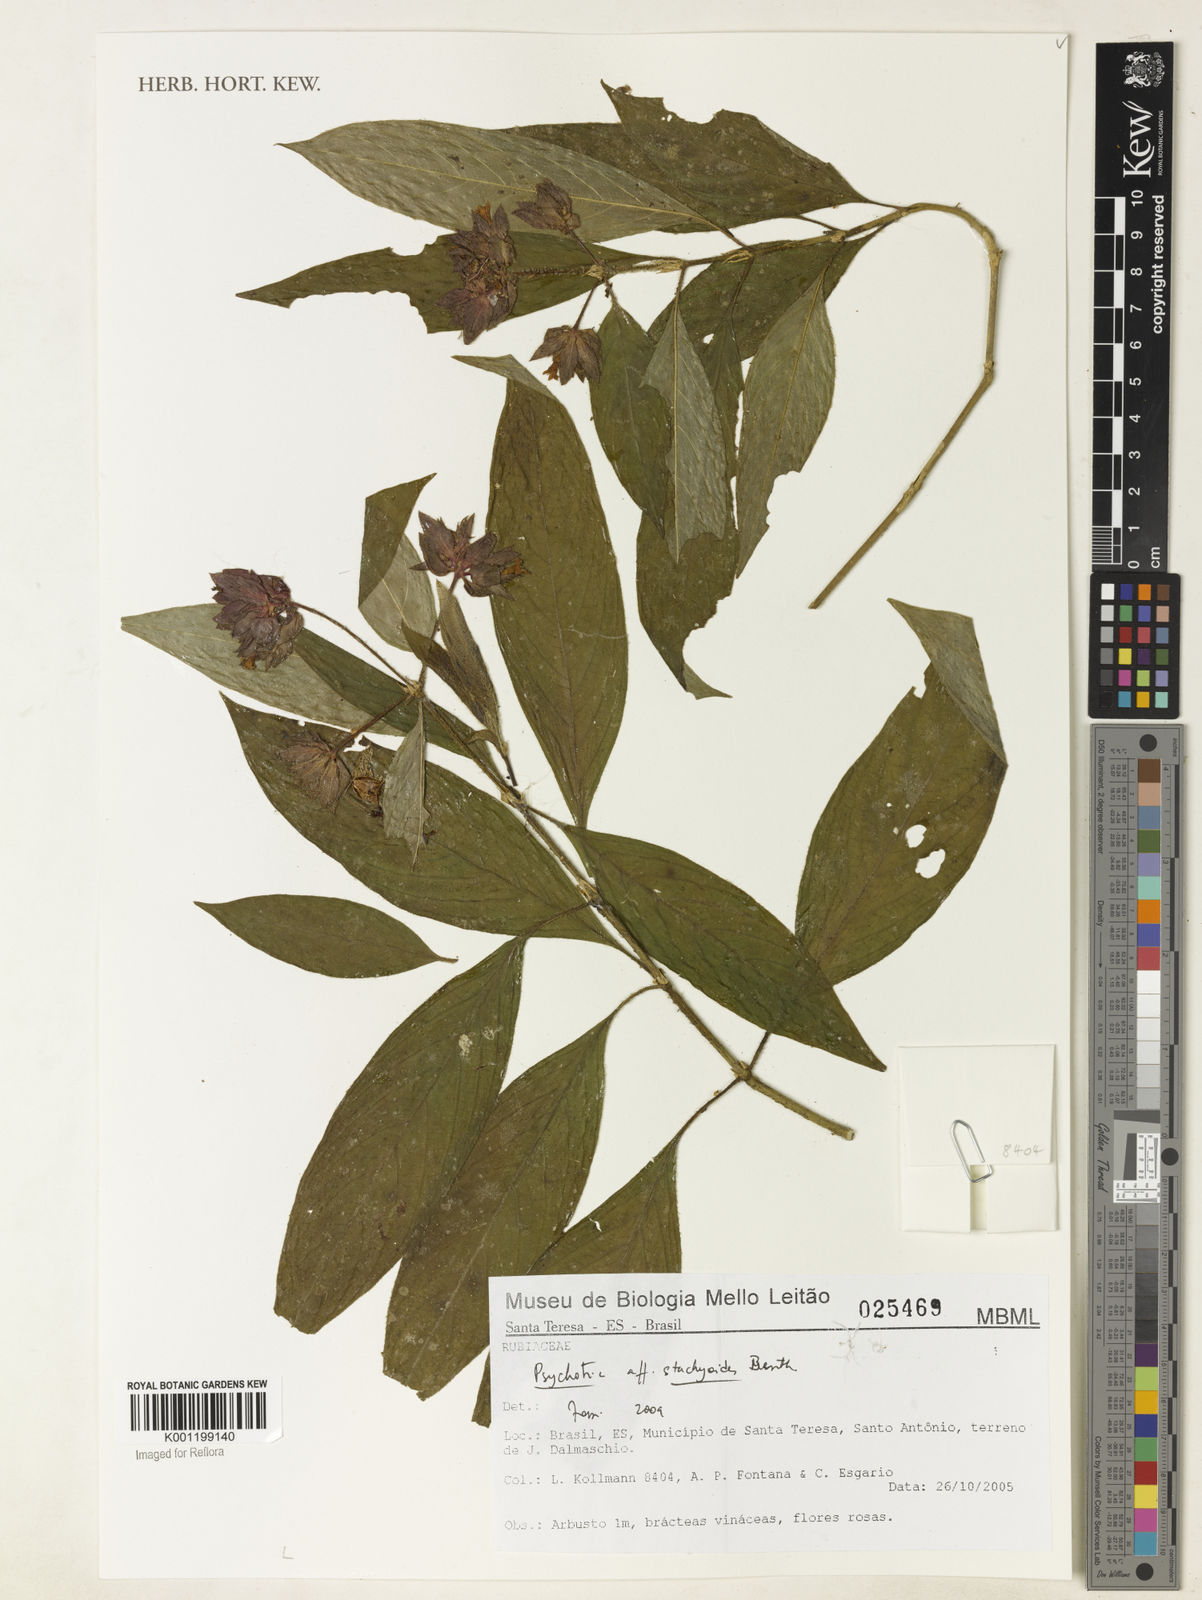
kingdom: Plantae
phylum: Tracheophyta
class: Magnoliopsida
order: Gentianales
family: Rubiaceae
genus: Psychotria
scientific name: Psychotria stachyoides
